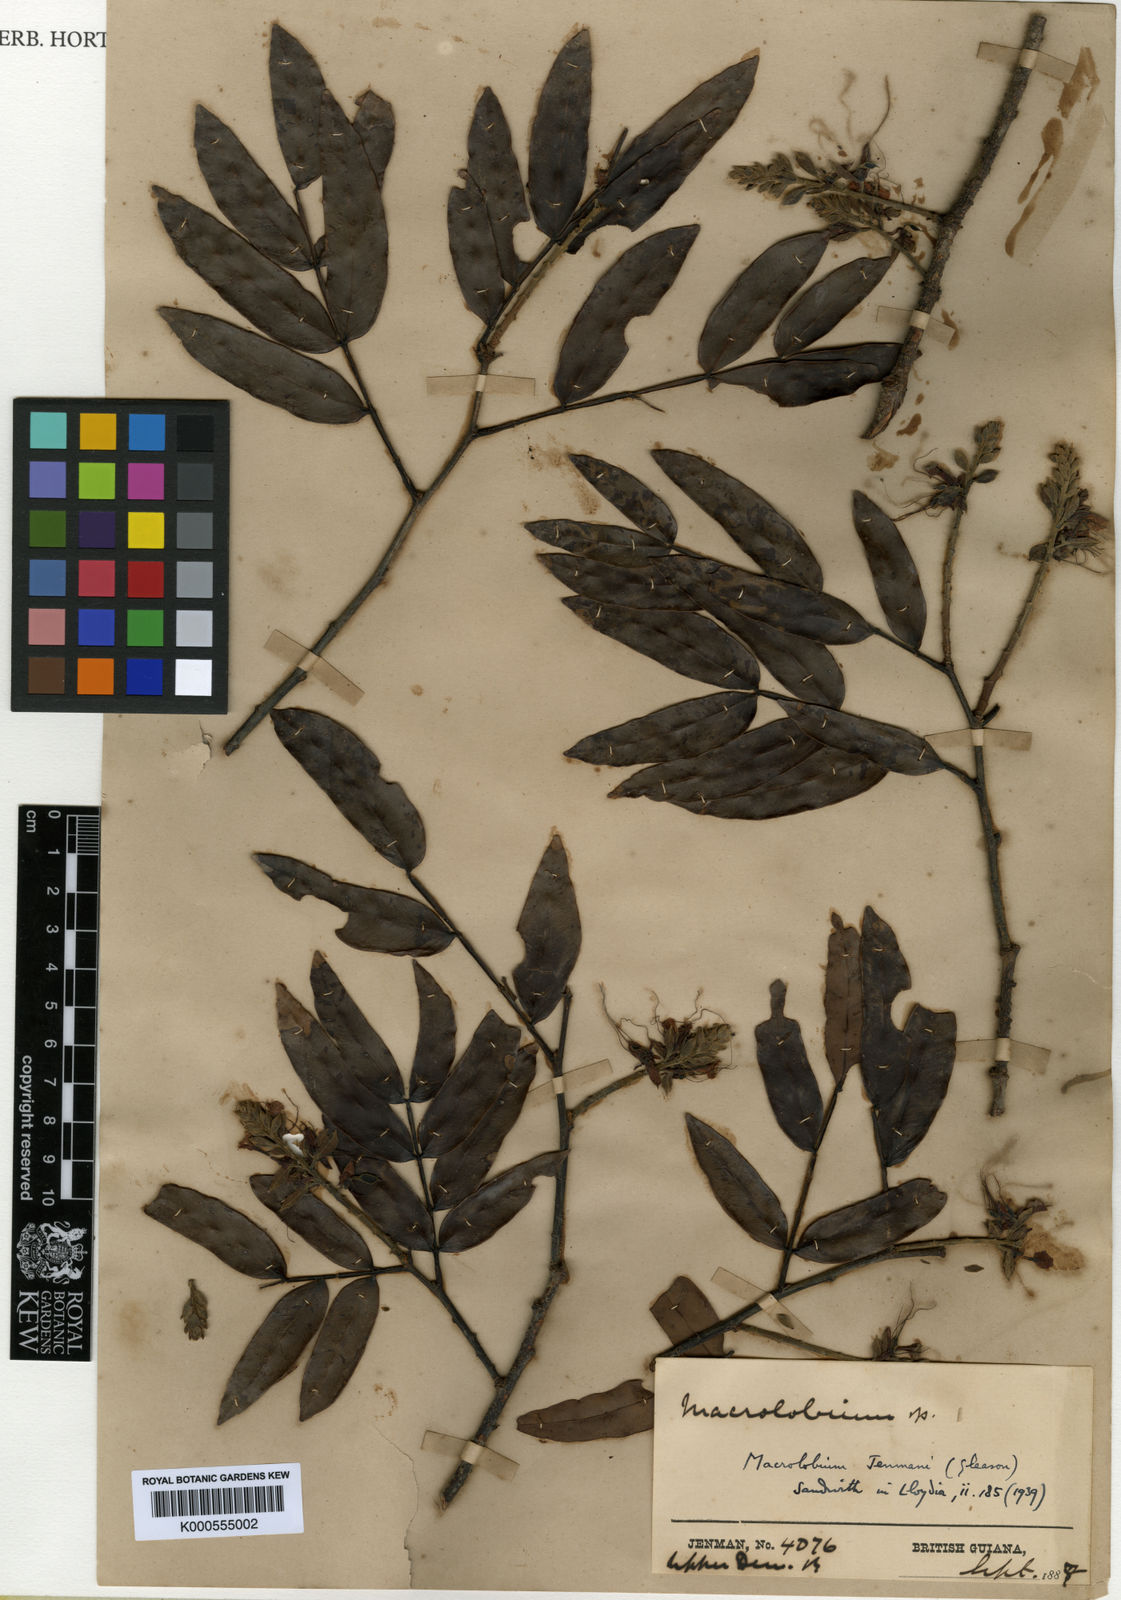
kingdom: Plantae
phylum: Tracheophyta
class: Magnoliopsida
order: Fabales
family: Fabaceae
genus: Macrolobium
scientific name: Macrolobium jenmanii
